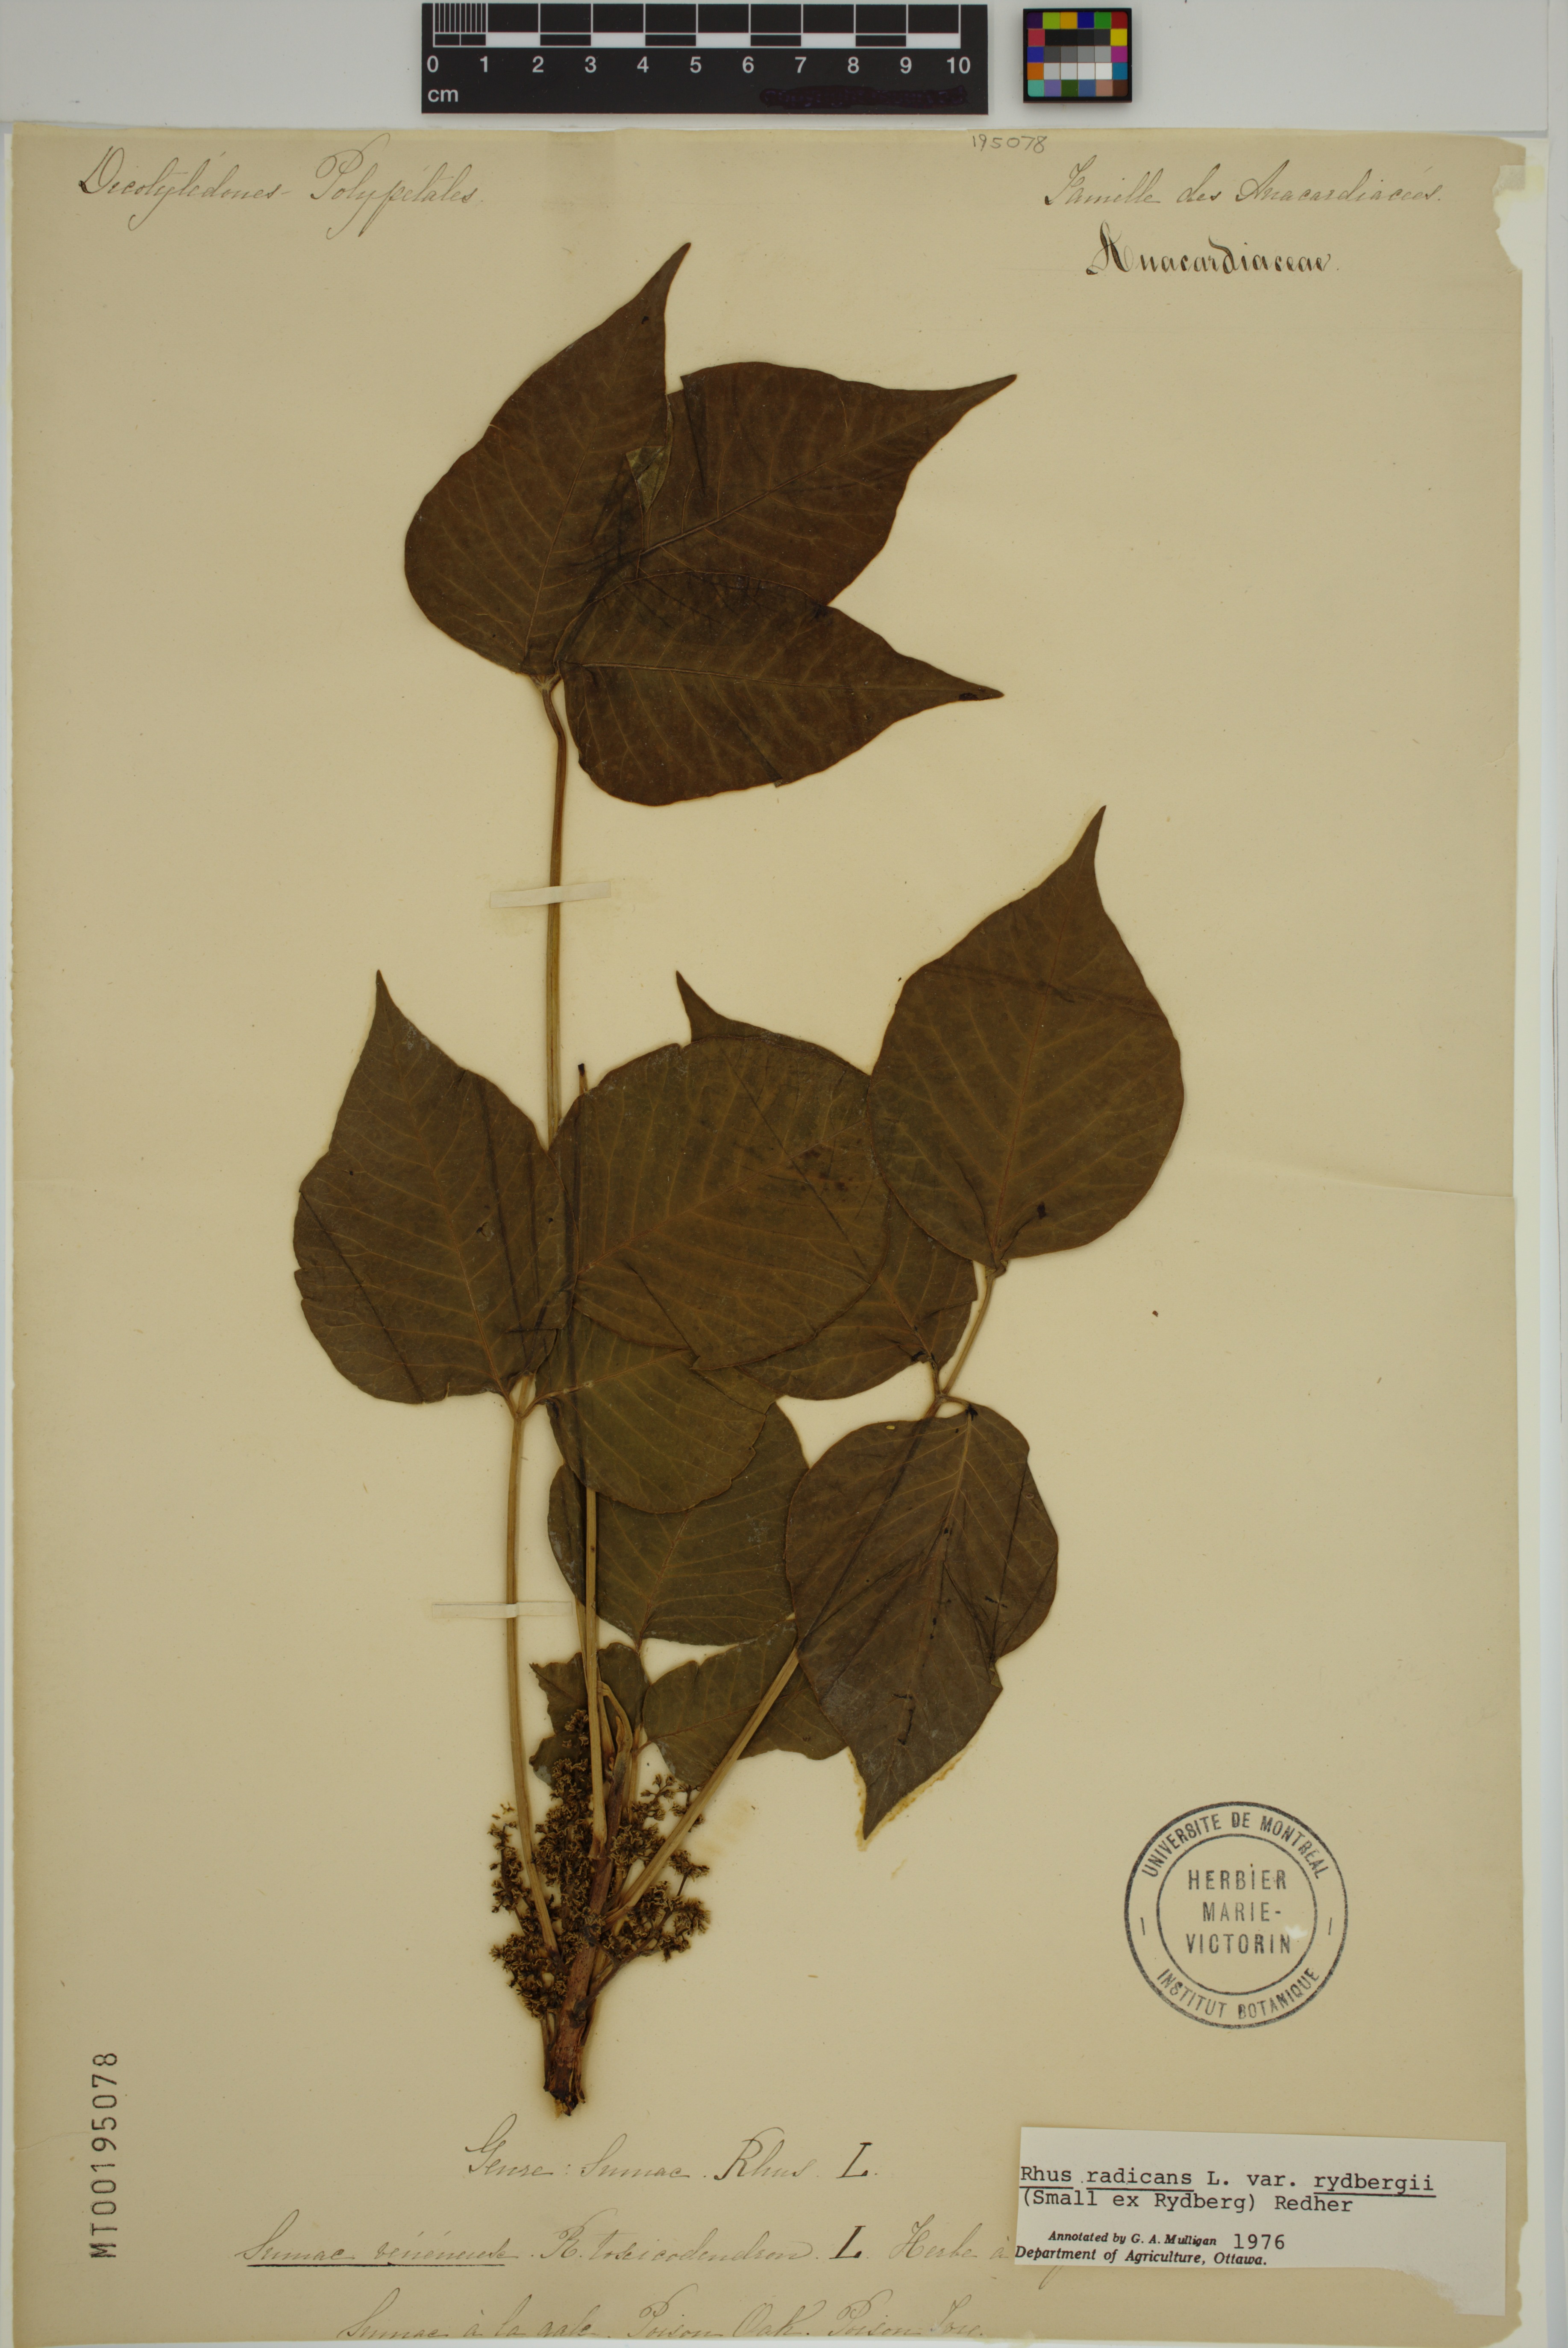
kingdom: Plantae
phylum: Tracheophyta
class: Magnoliopsida
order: Sapindales
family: Anacardiaceae
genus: Toxicodendron
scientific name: Toxicodendron rydbergii
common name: Rydberg's poison-ivy
